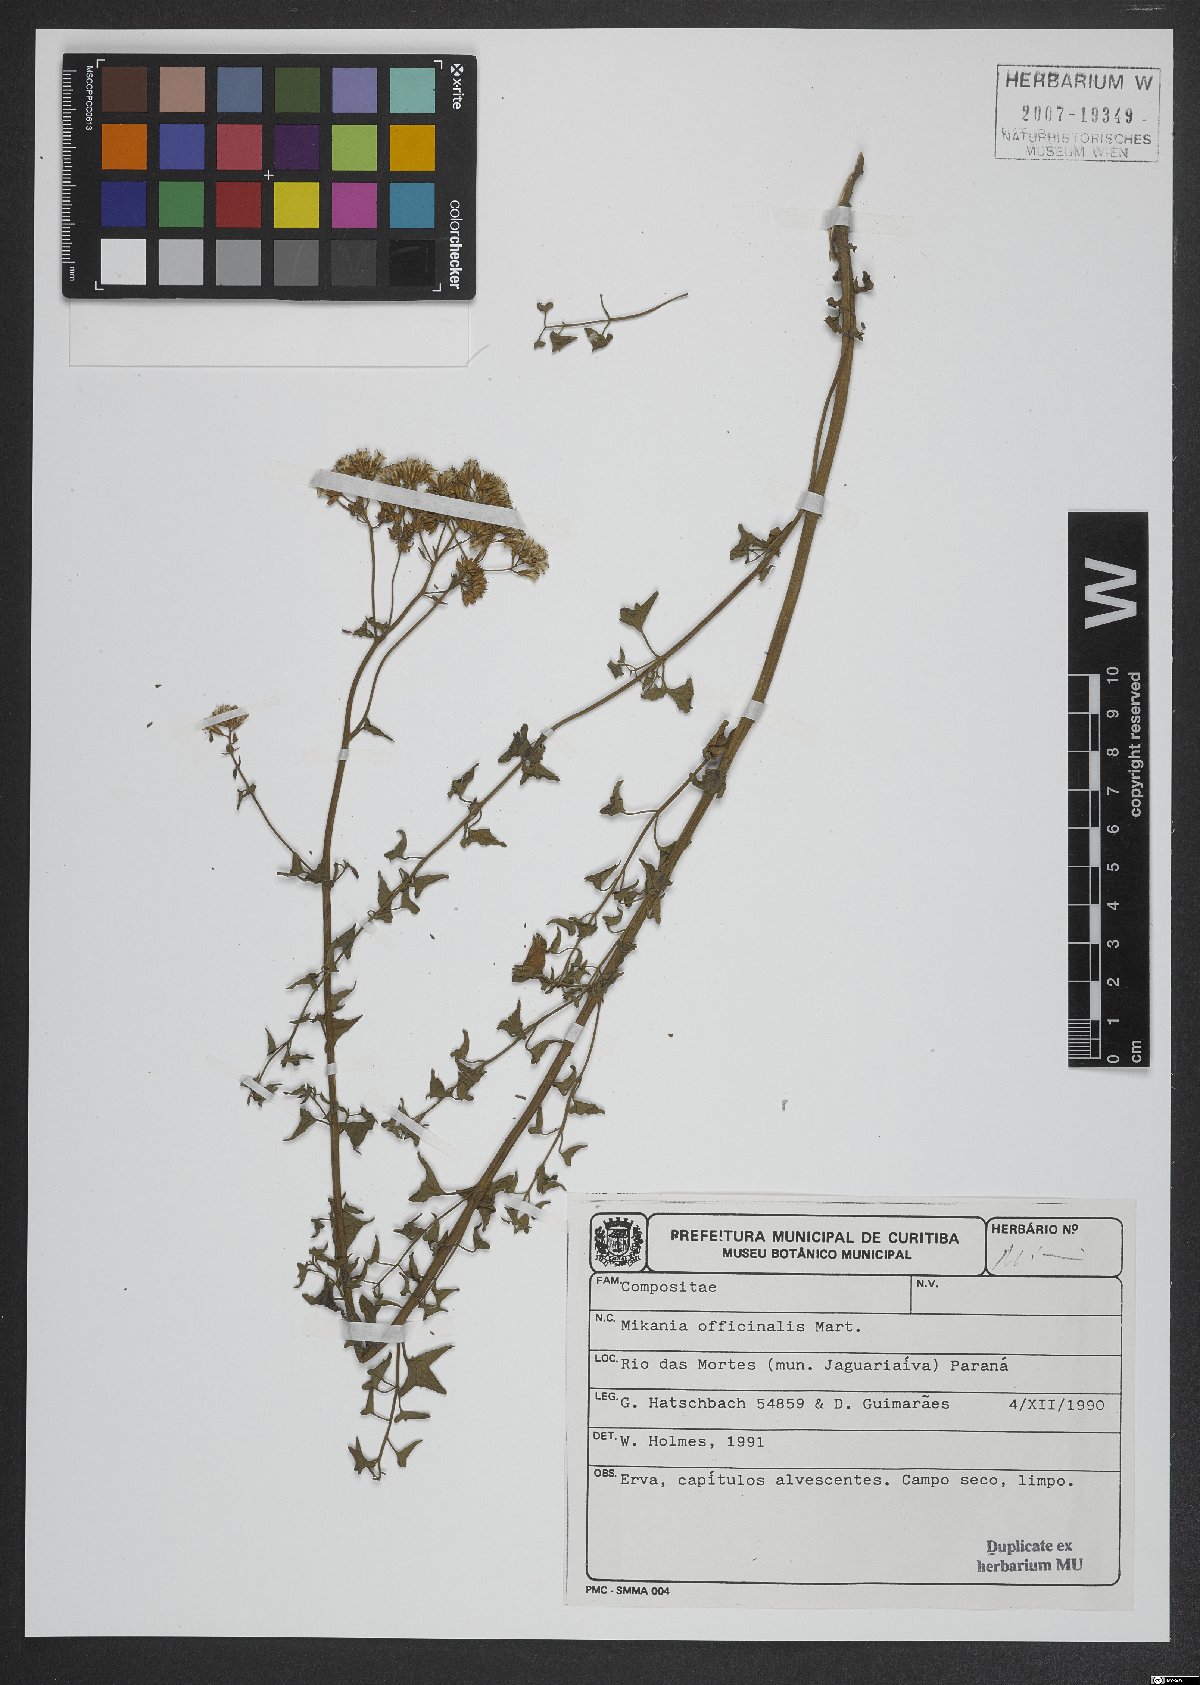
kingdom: Plantae
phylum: Tracheophyta
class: Magnoliopsida
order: Asterales
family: Asteraceae
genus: Mikania
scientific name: Mikania officinalis
